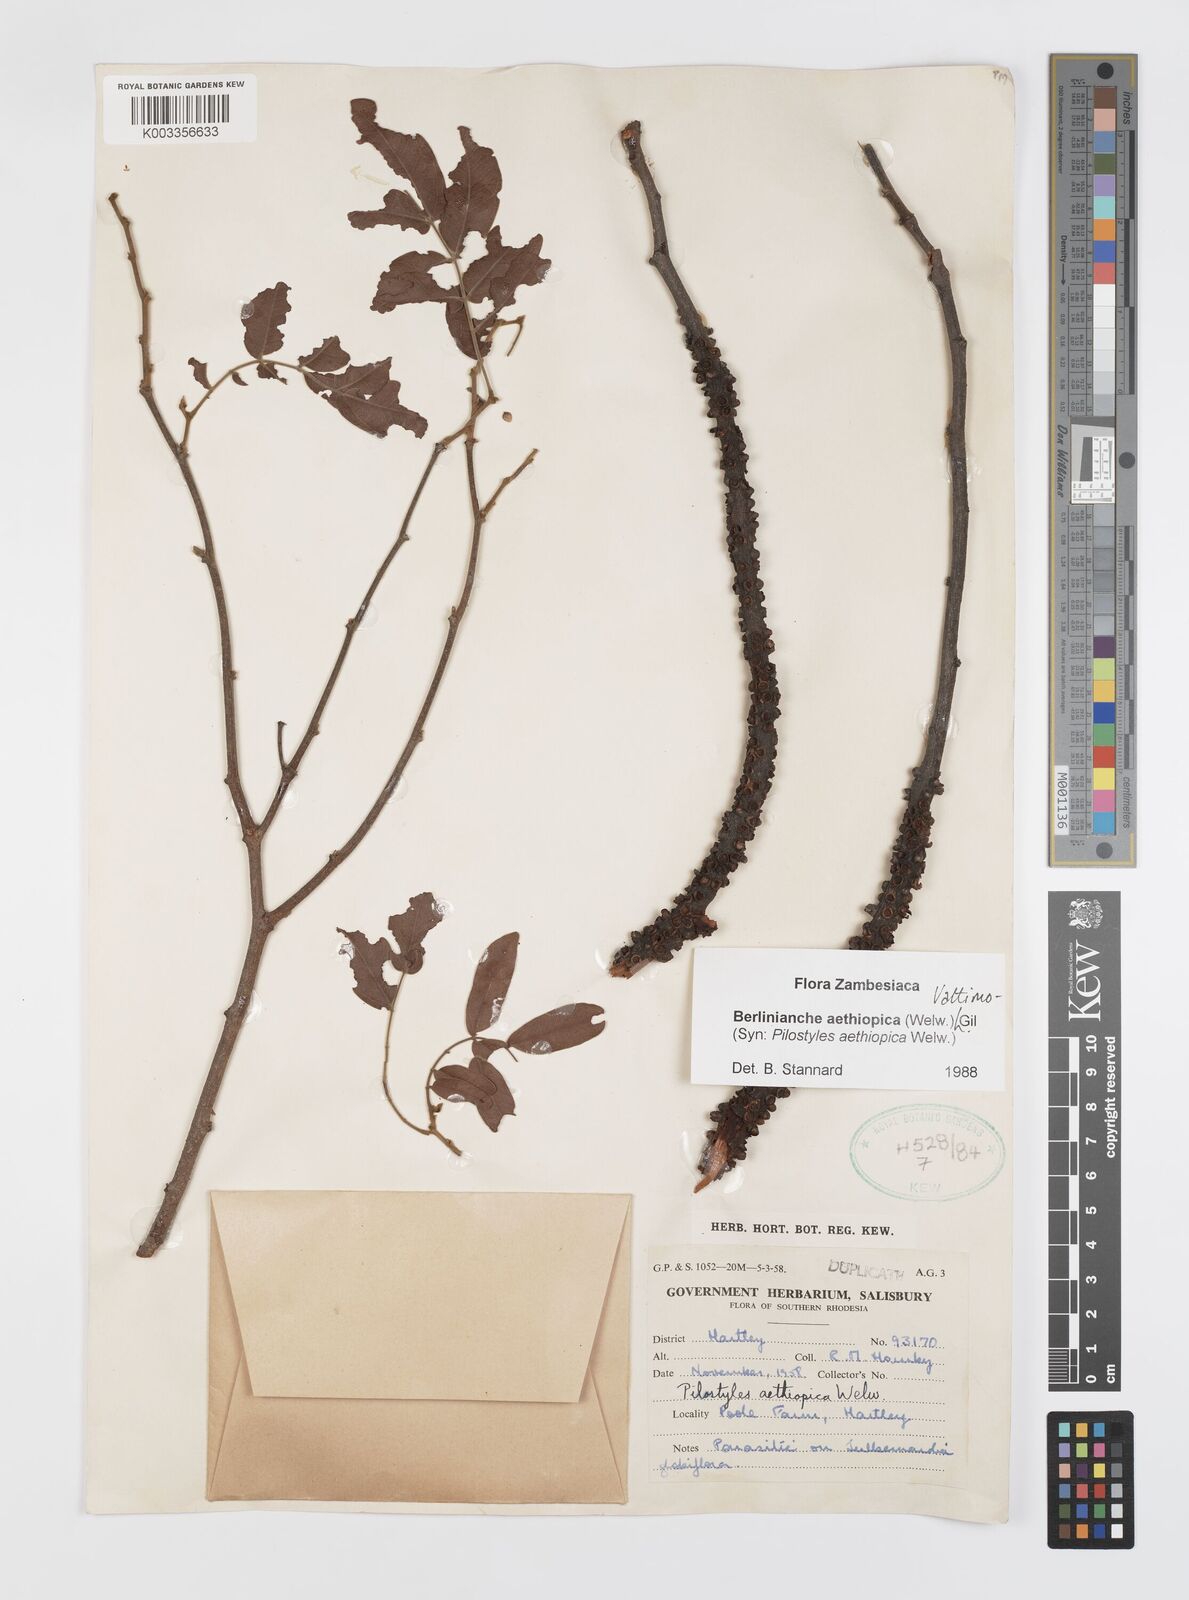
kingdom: Plantae
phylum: Tracheophyta
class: Magnoliopsida
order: Cucurbitales
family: Apodanthaceae
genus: Pilostyles
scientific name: Pilostyles aethiopica
